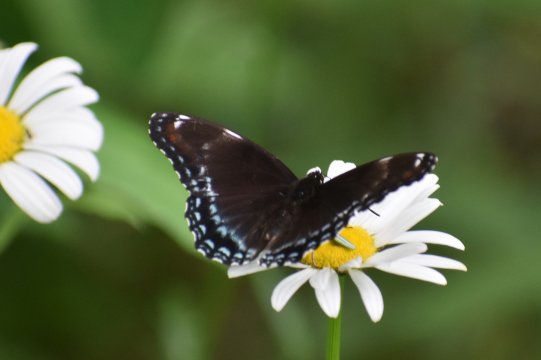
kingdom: Animalia
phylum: Arthropoda
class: Insecta
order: Lepidoptera
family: Nymphalidae
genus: Limenitis
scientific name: Limenitis arthemis
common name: Red-spotted Admiral
